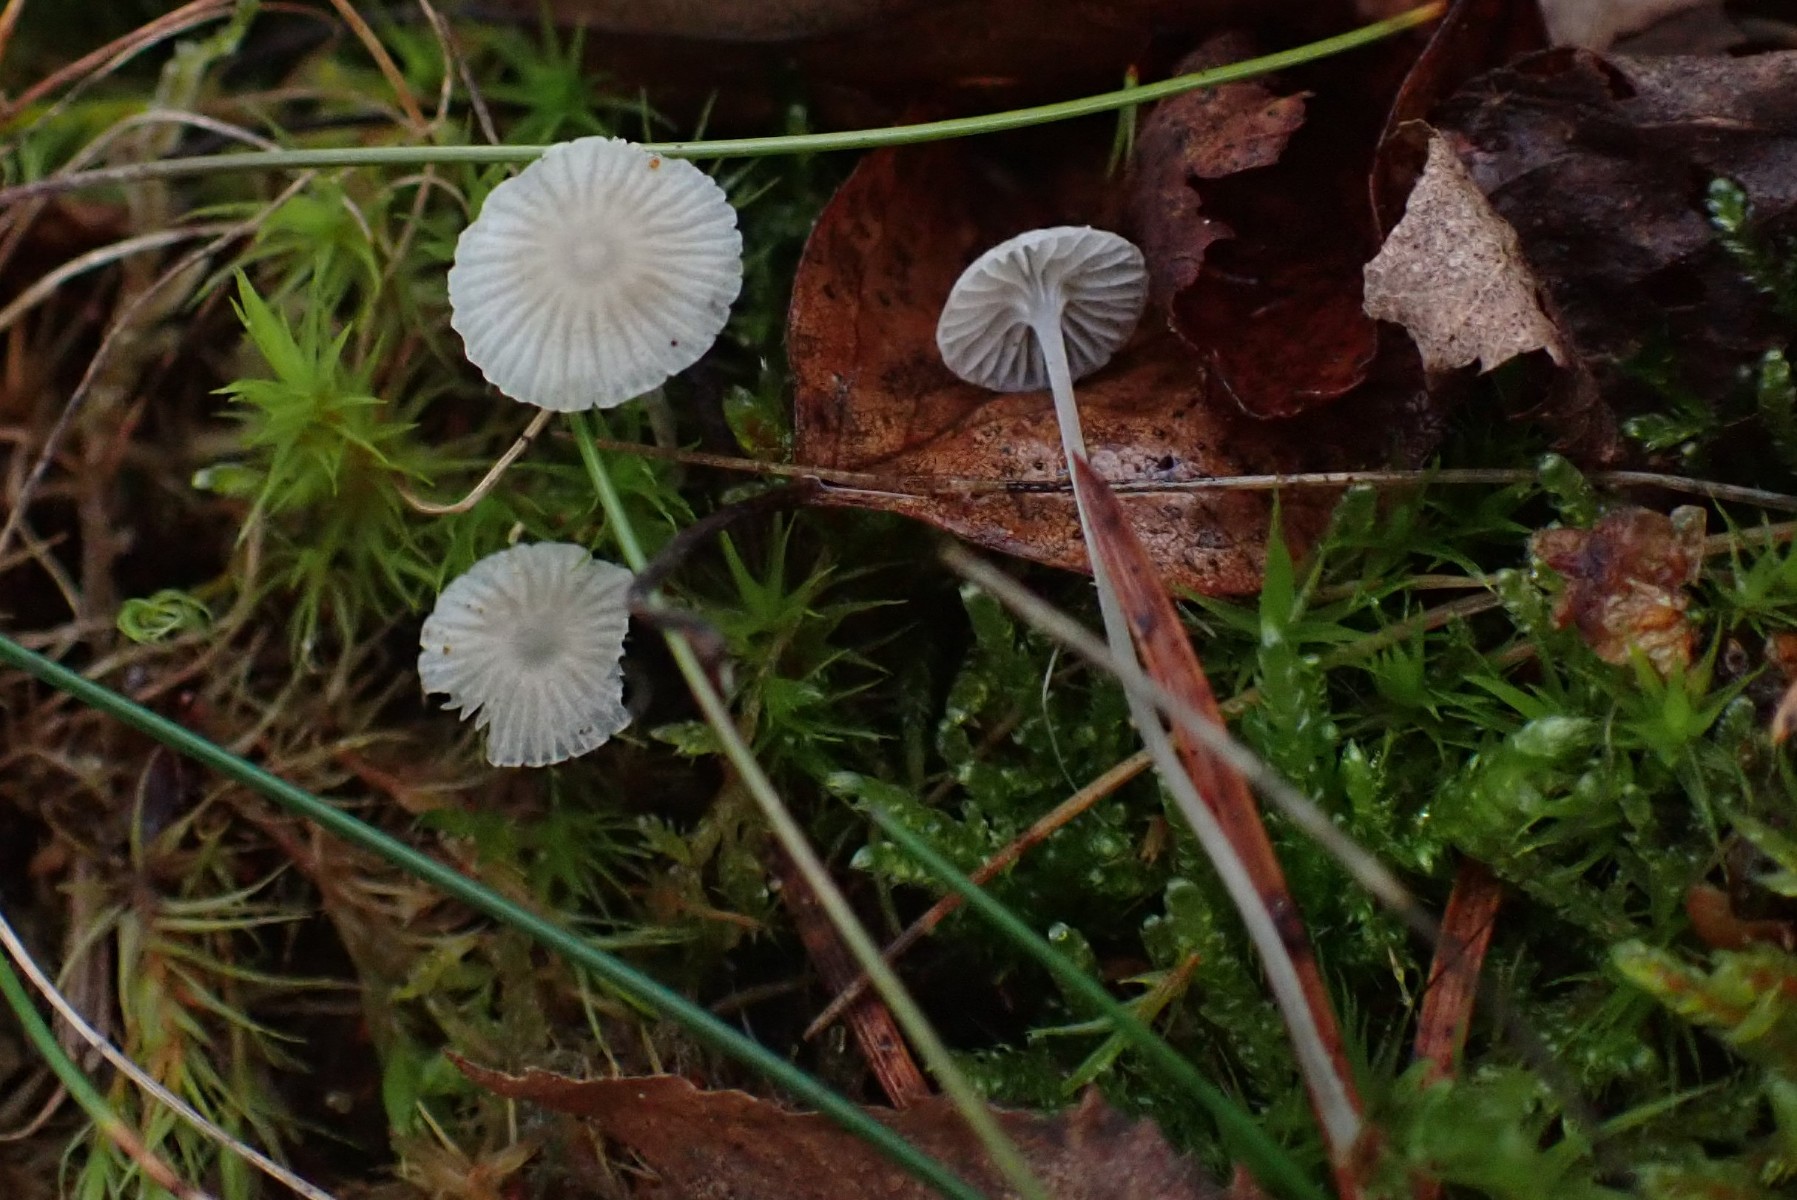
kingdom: Fungi
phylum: Basidiomycota
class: Agaricomycetes
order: Agaricales
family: Mycenaceae
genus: Mycena
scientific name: Mycena cinerella
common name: mel-huesvamp
